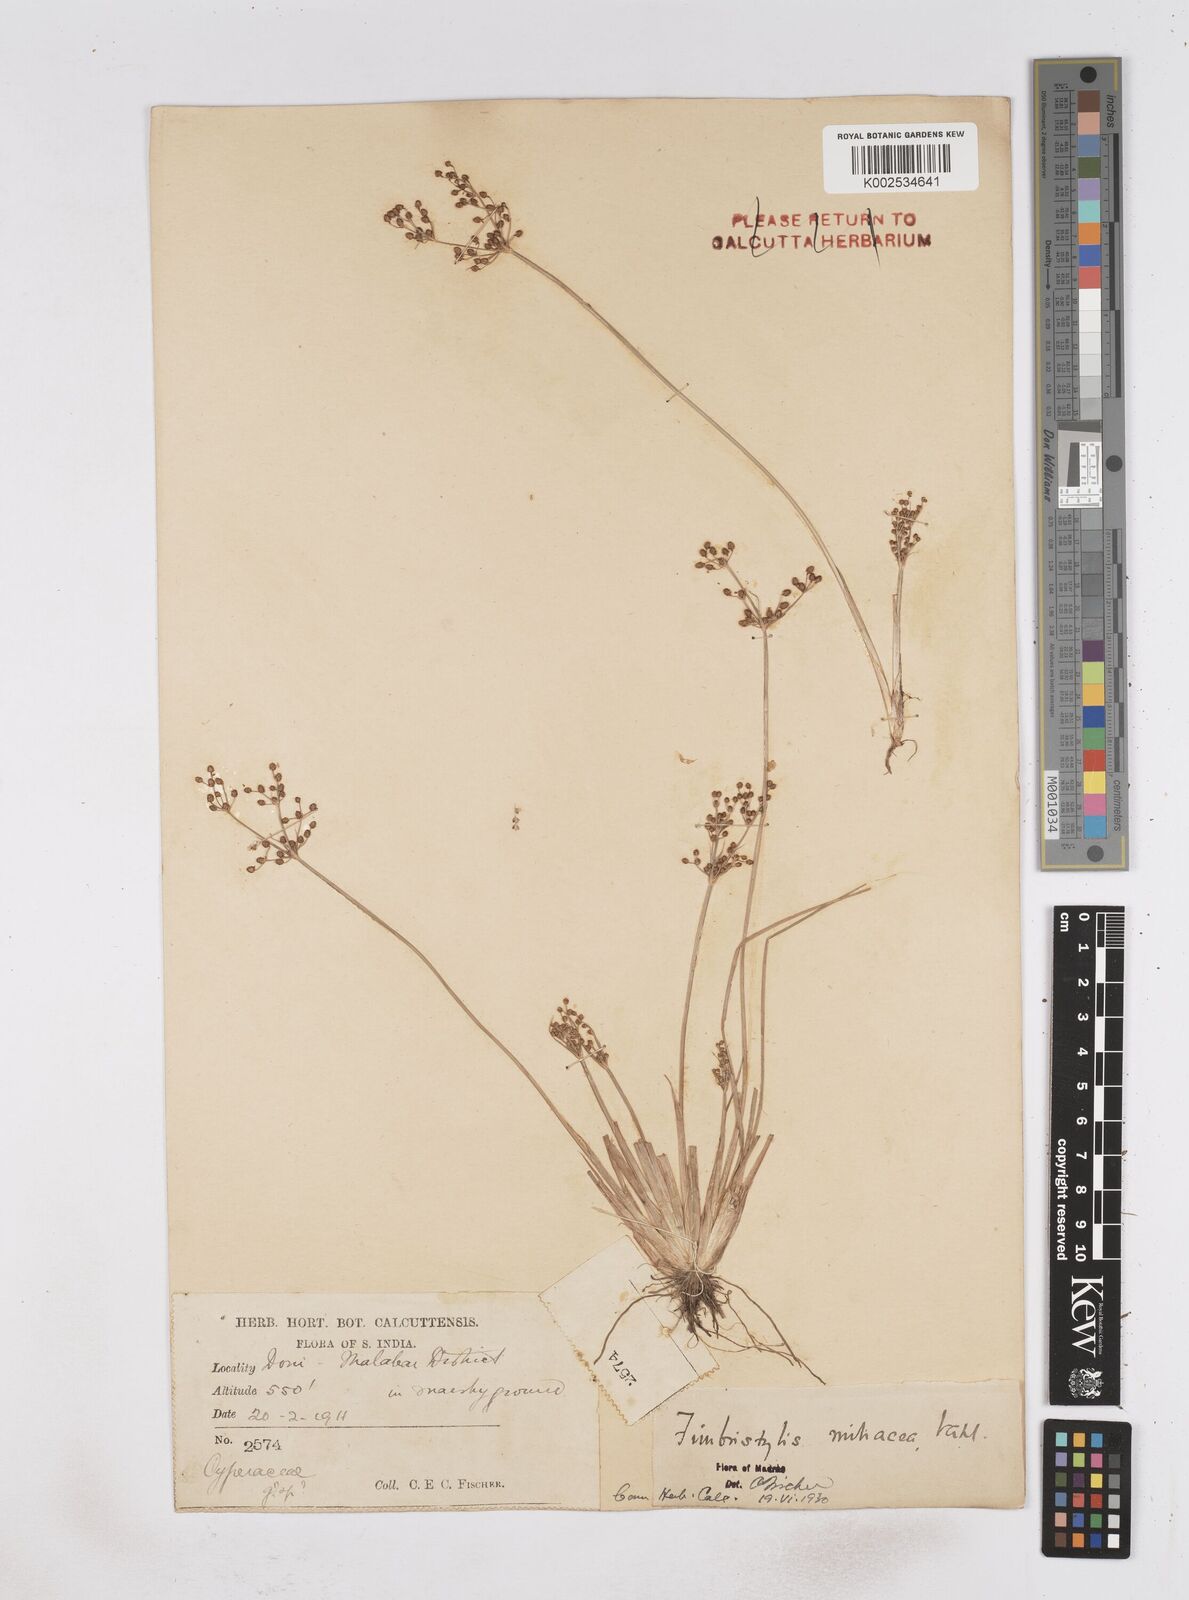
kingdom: Plantae
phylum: Tracheophyta
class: Liliopsida
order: Poales
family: Cyperaceae
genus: Fimbristylis
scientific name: Fimbristylis littoralis
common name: Fimbry
